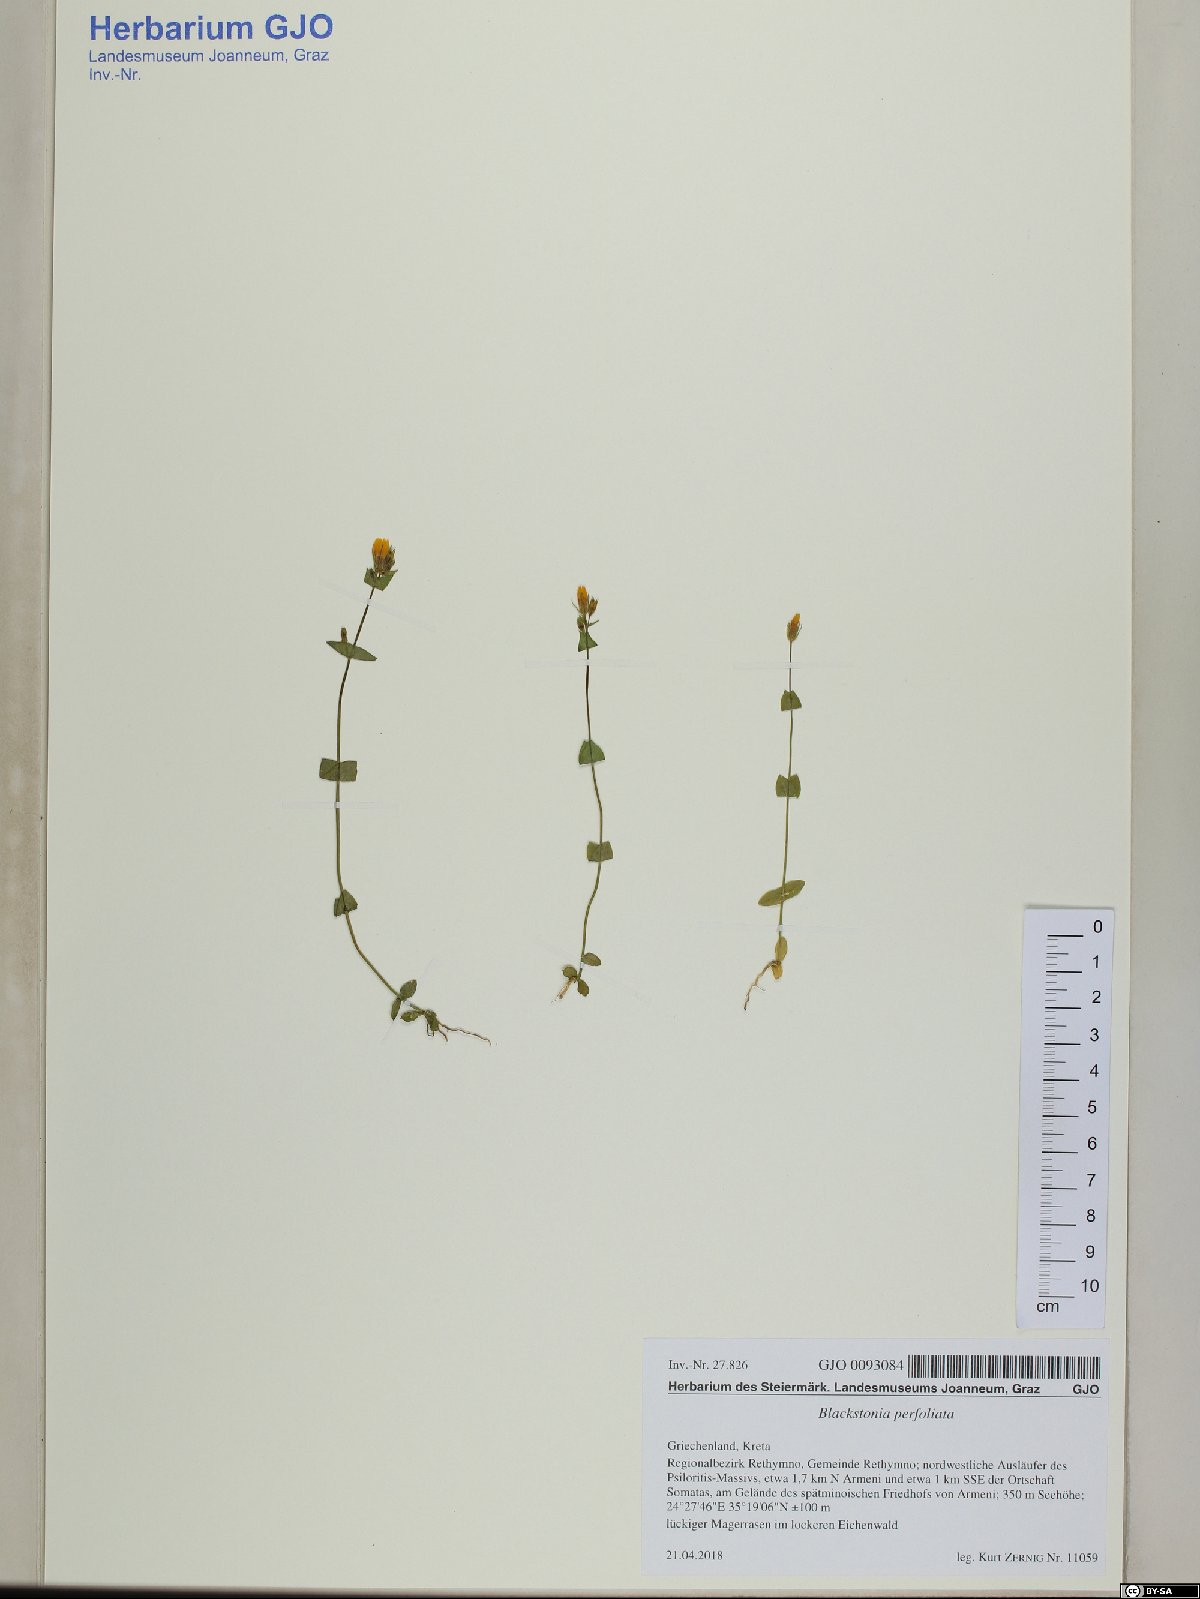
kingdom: Plantae
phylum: Tracheophyta
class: Magnoliopsida
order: Gentianales
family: Gentianaceae
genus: Blackstonia
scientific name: Blackstonia perfoliata
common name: Yellow-wort
